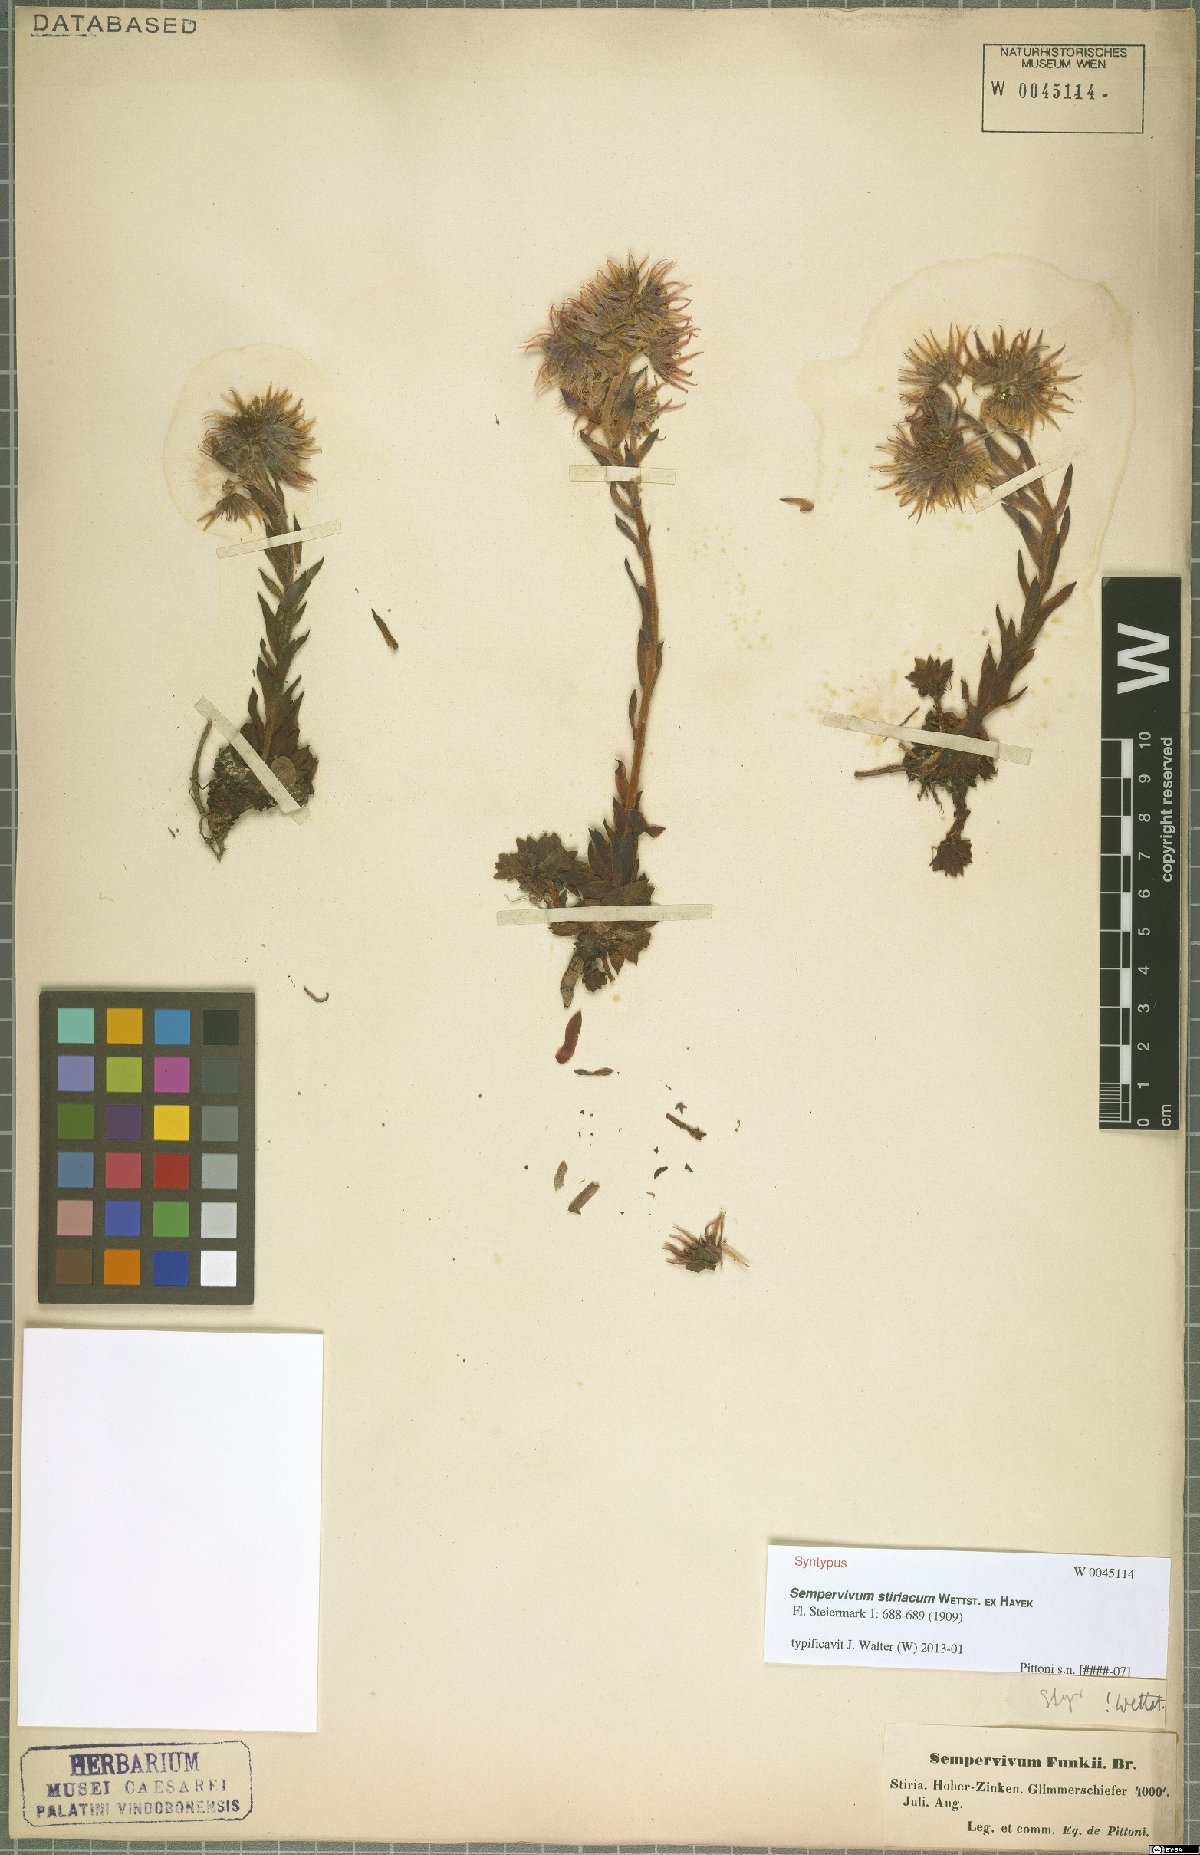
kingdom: Plantae
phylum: Tracheophyta
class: Magnoliopsida
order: Saxifragales
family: Crassulaceae
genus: Sempervivum
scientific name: Sempervivum montanum
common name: Mountain house-leek
